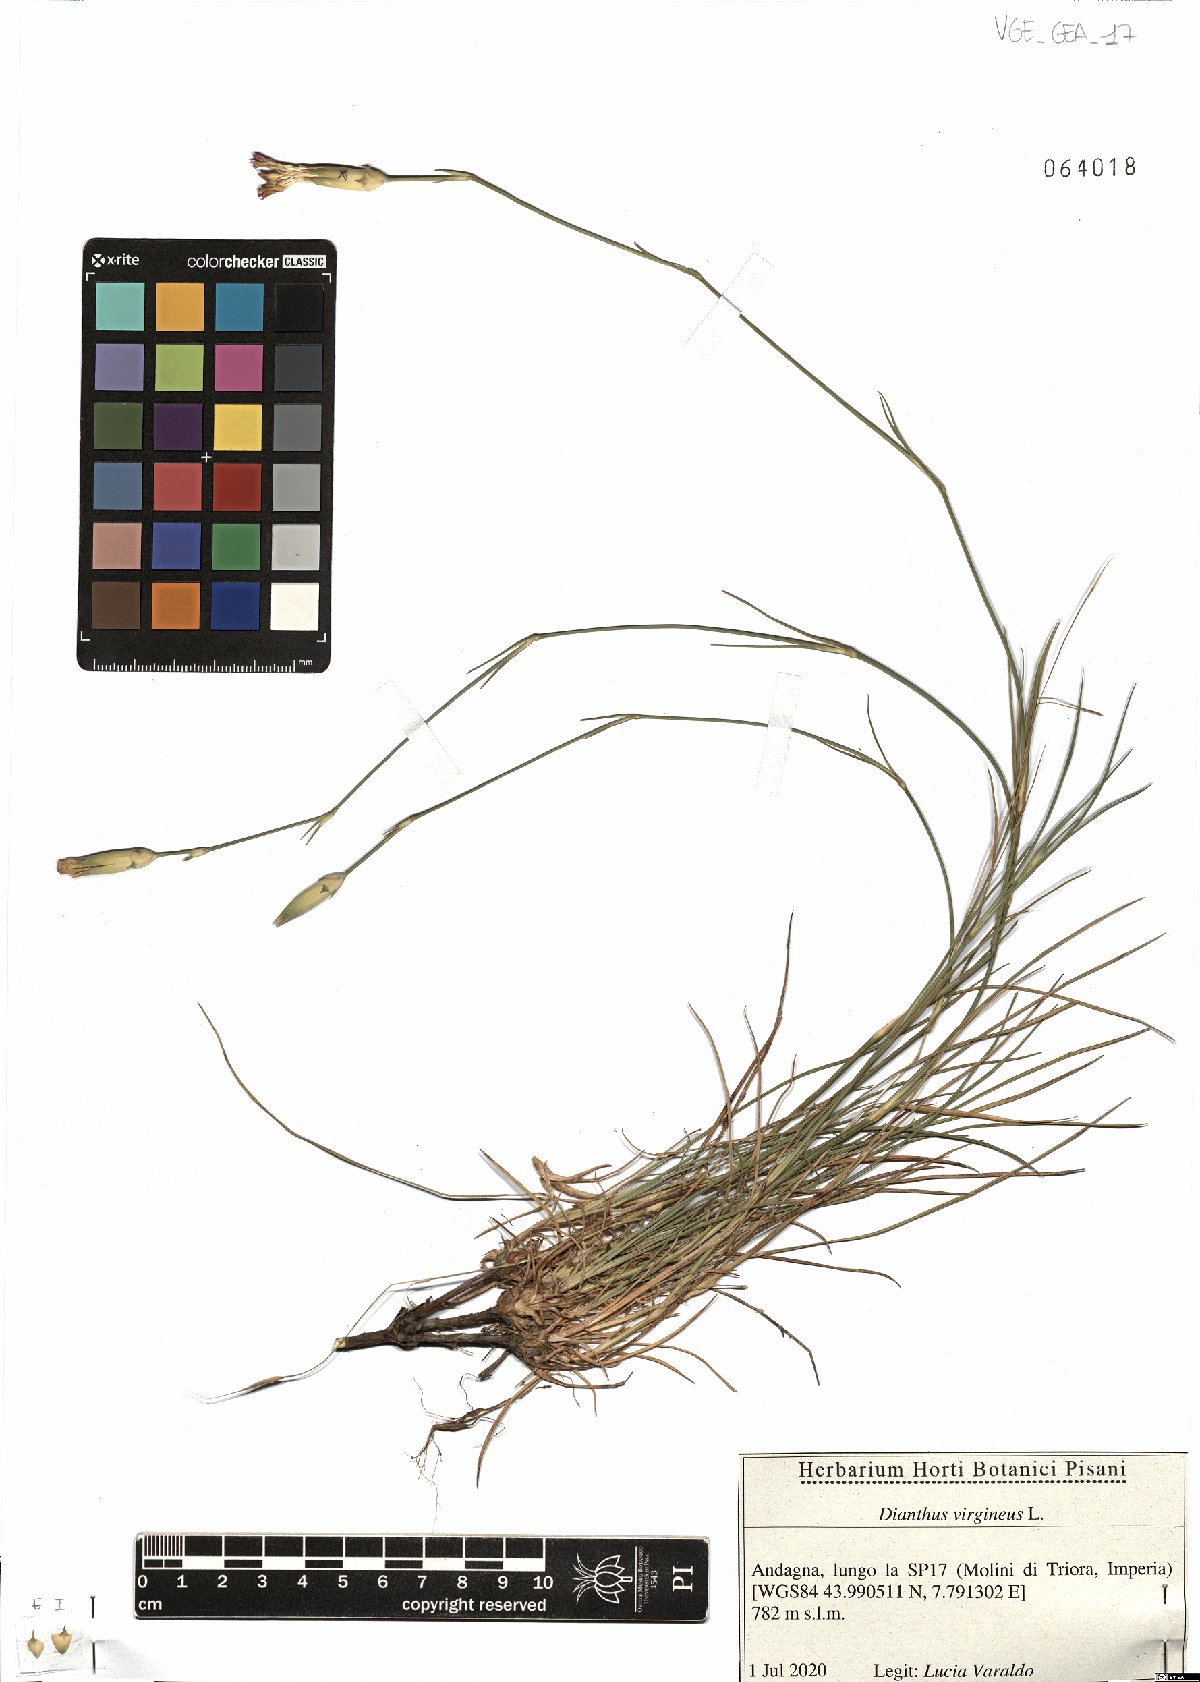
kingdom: Plantae
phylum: Tracheophyta
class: Magnoliopsida
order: Caryophyllales
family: Caryophyllaceae
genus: Dianthus
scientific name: Dianthus virgineus
